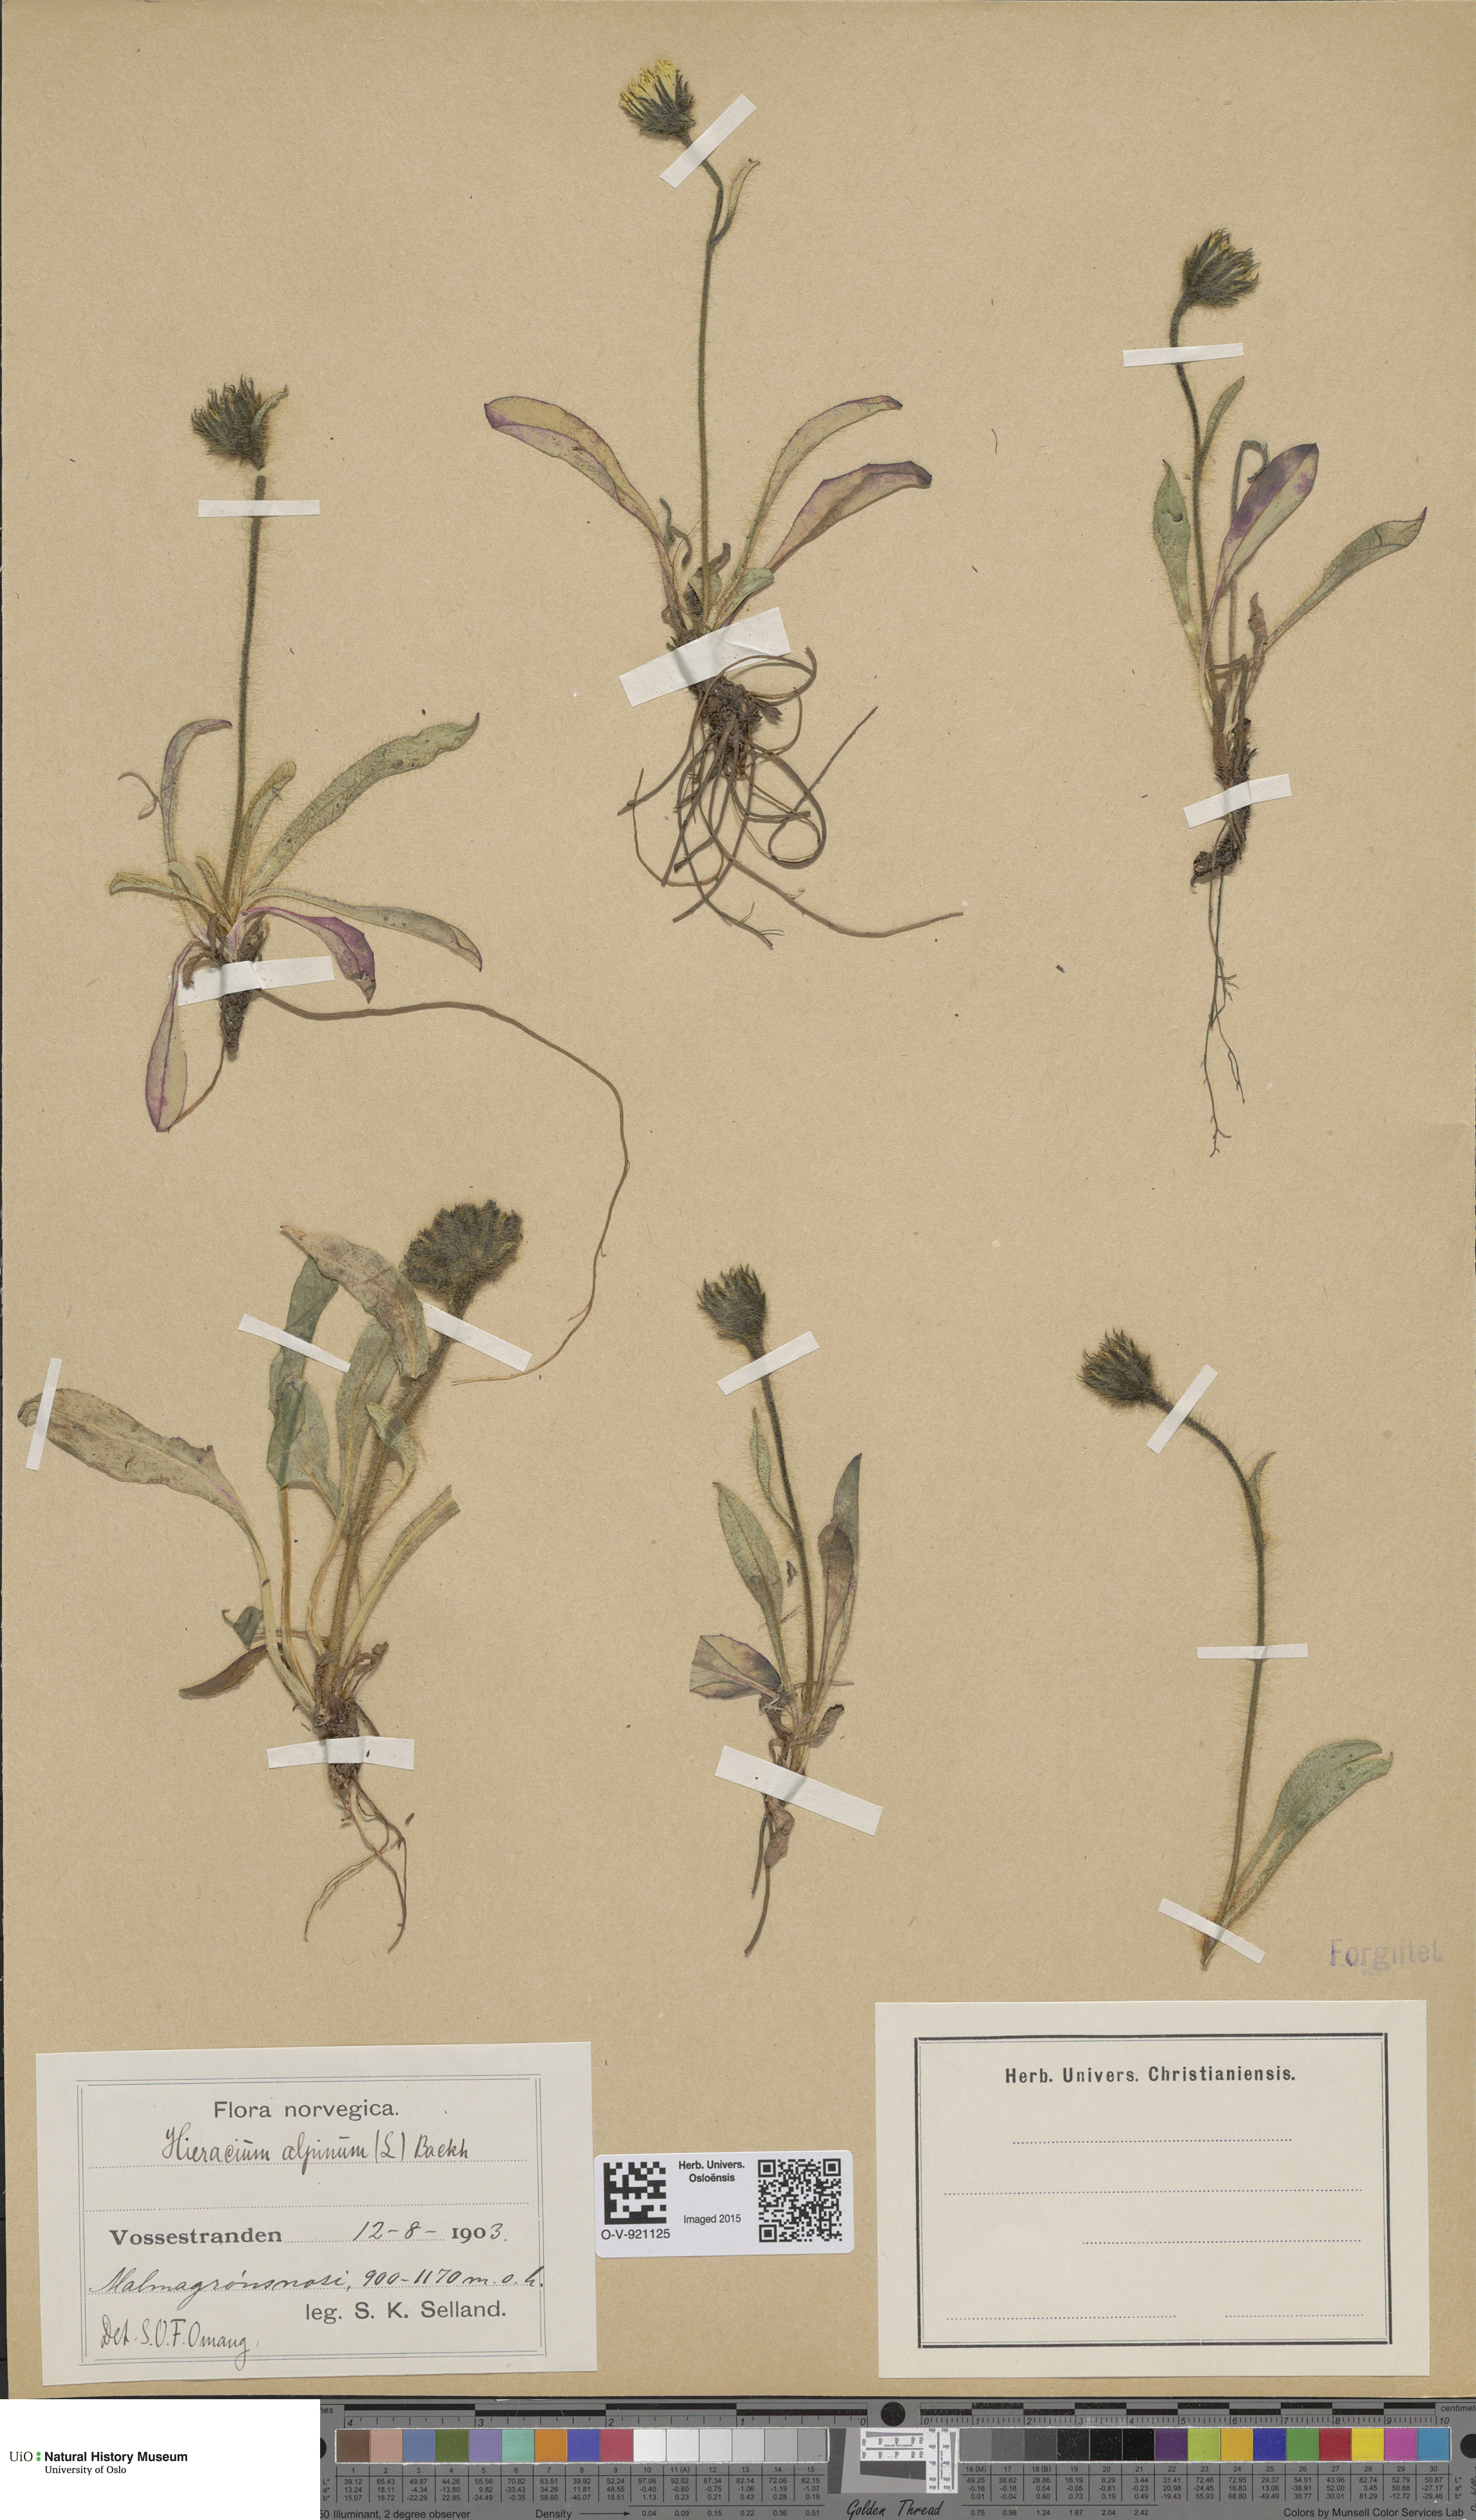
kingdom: Plantae
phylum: Tracheophyta
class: Magnoliopsida
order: Asterales
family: Asteraceae
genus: Hieracium
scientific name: Hieracium alpinum
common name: Alpine hawkweed
